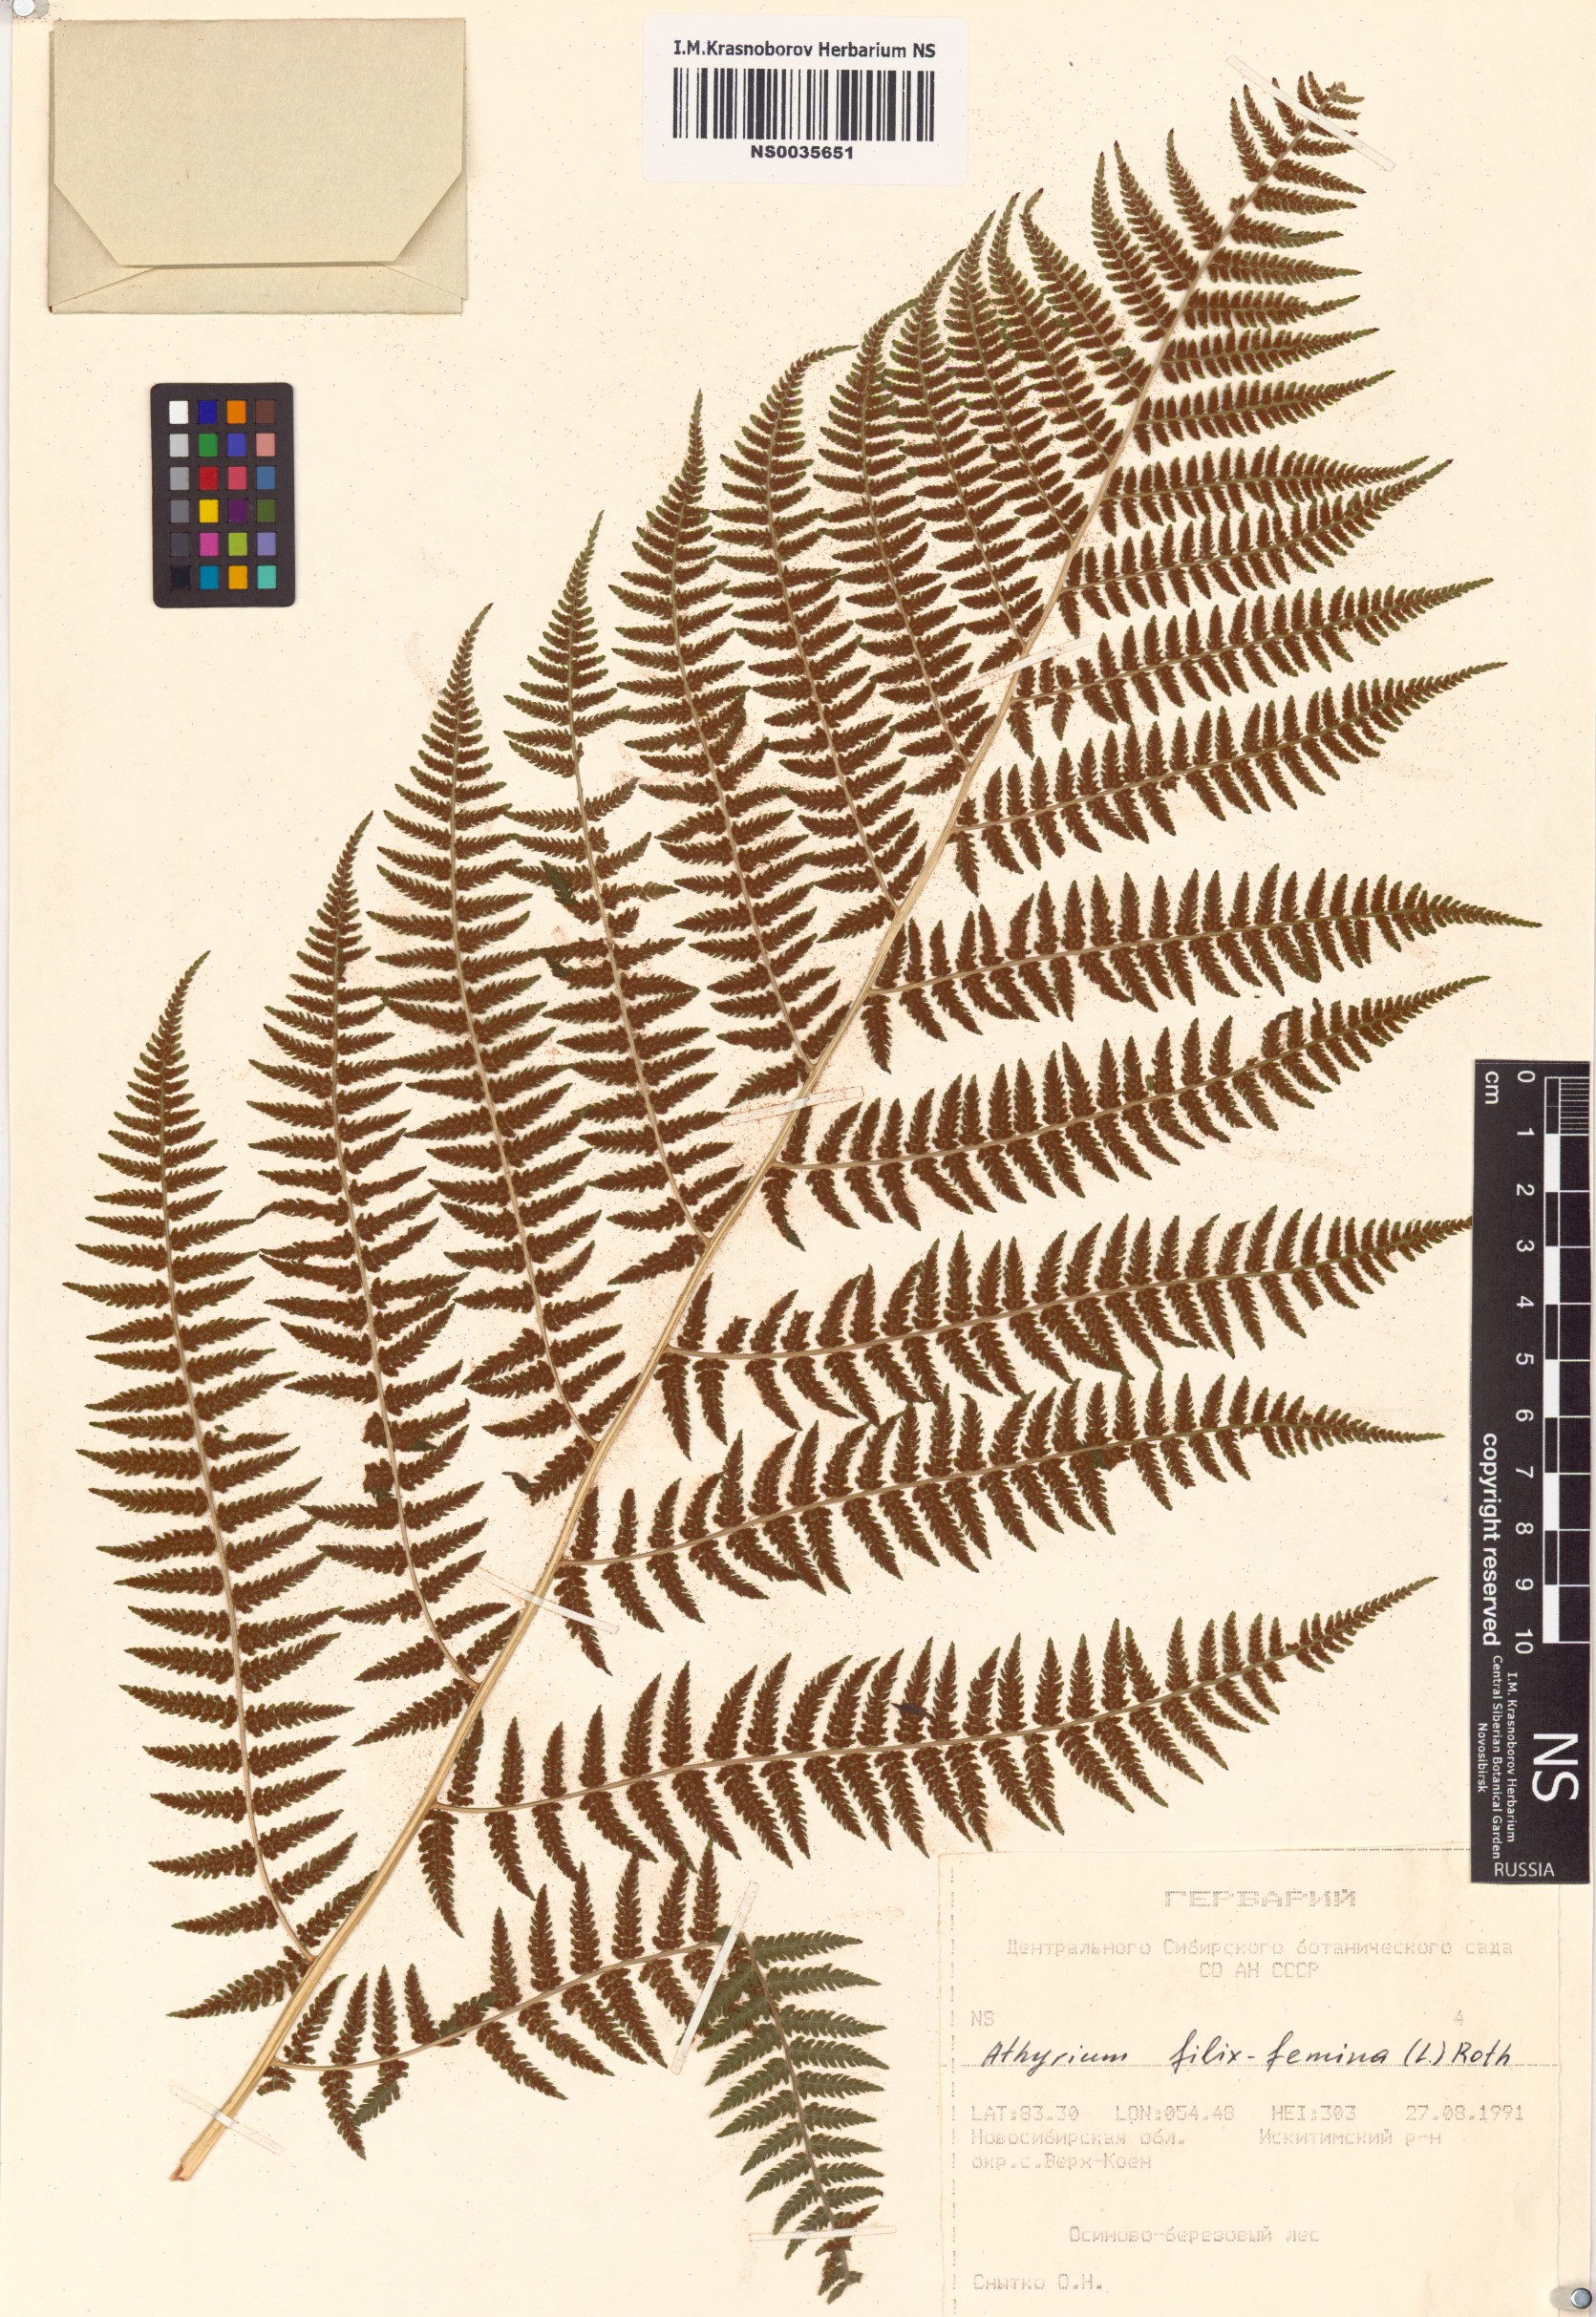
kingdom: Plantae
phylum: Tracheophyta
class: Polypodiopsida
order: Polypodiales
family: Athyriaceae
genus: Athyrium
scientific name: Athyrium filix-femina
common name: Lady fern
